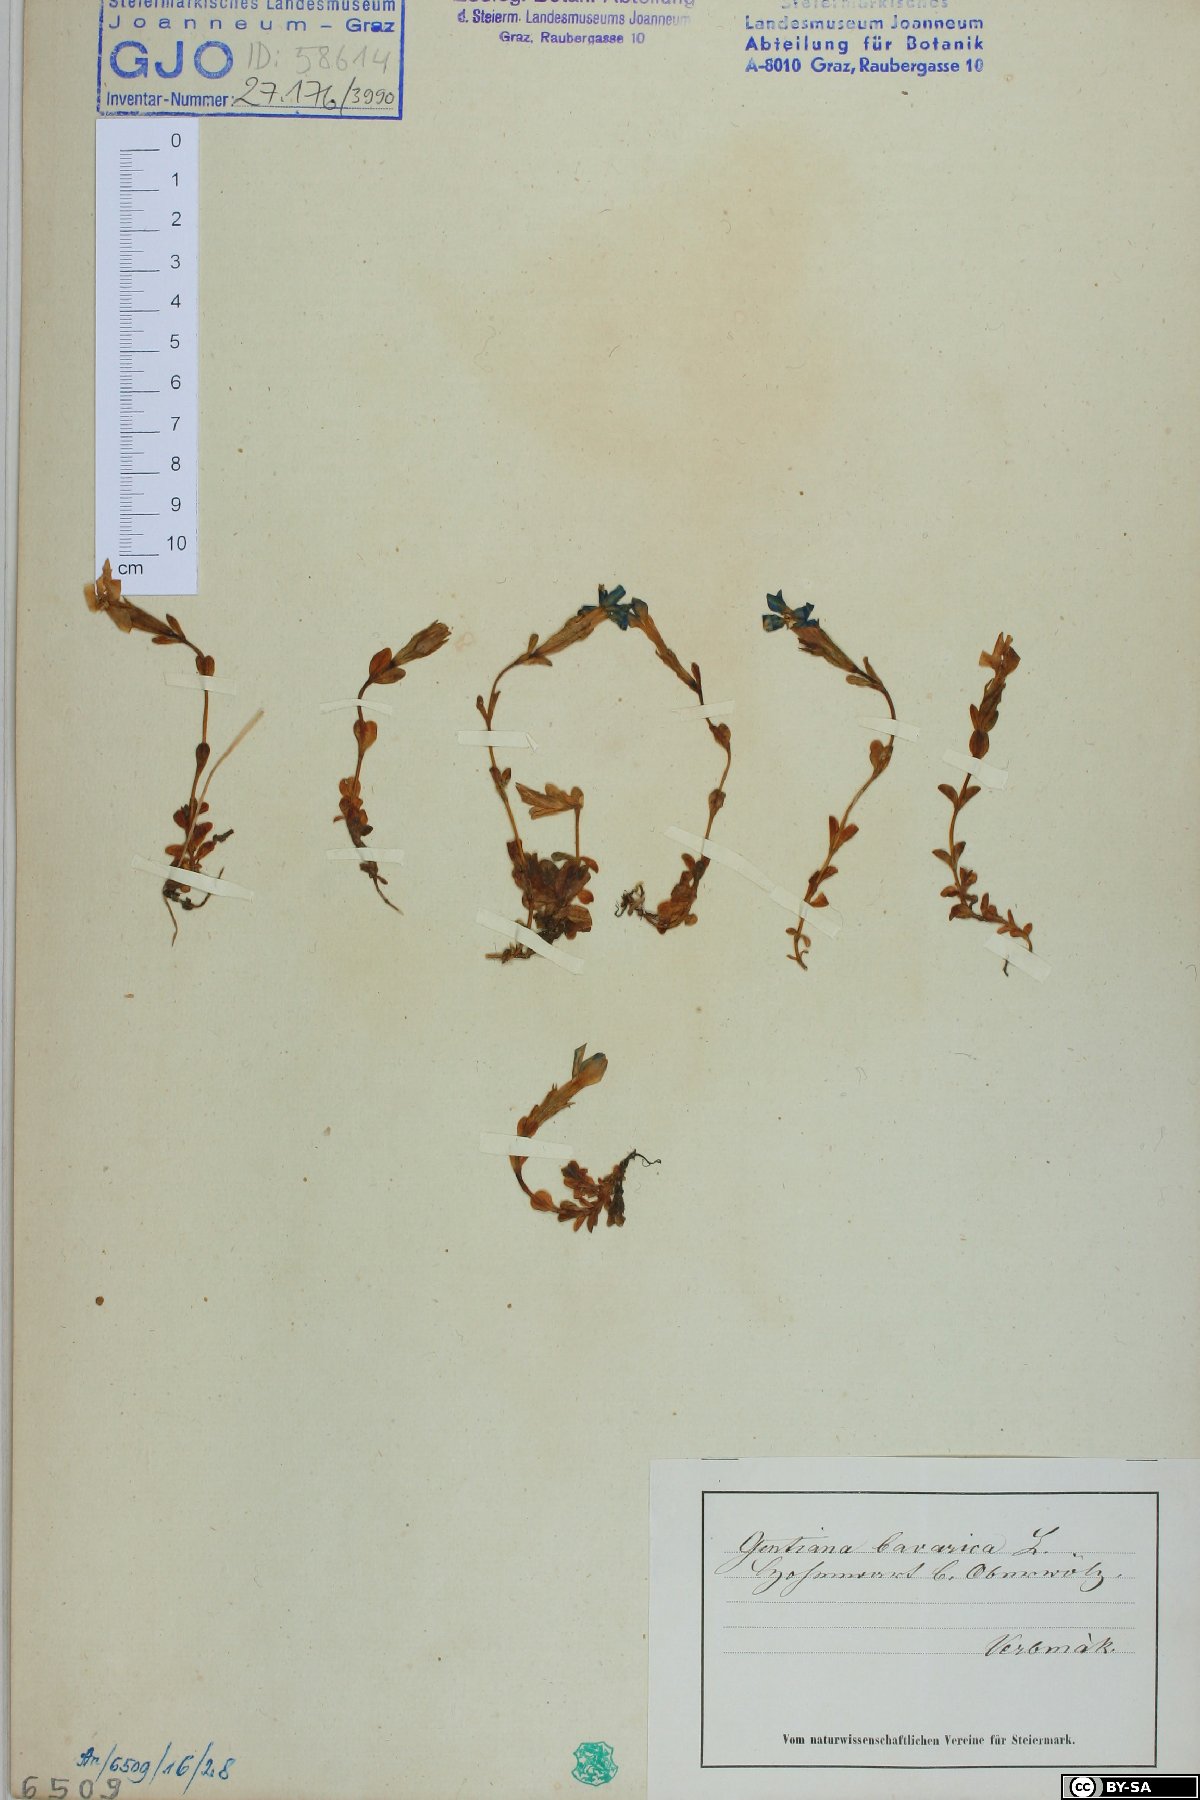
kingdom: Plantae
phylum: Tracheophyta
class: Magnoliopsida
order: Gentianales
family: Gentianaceae
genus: Gentiana
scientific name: Gentiana bavarica
